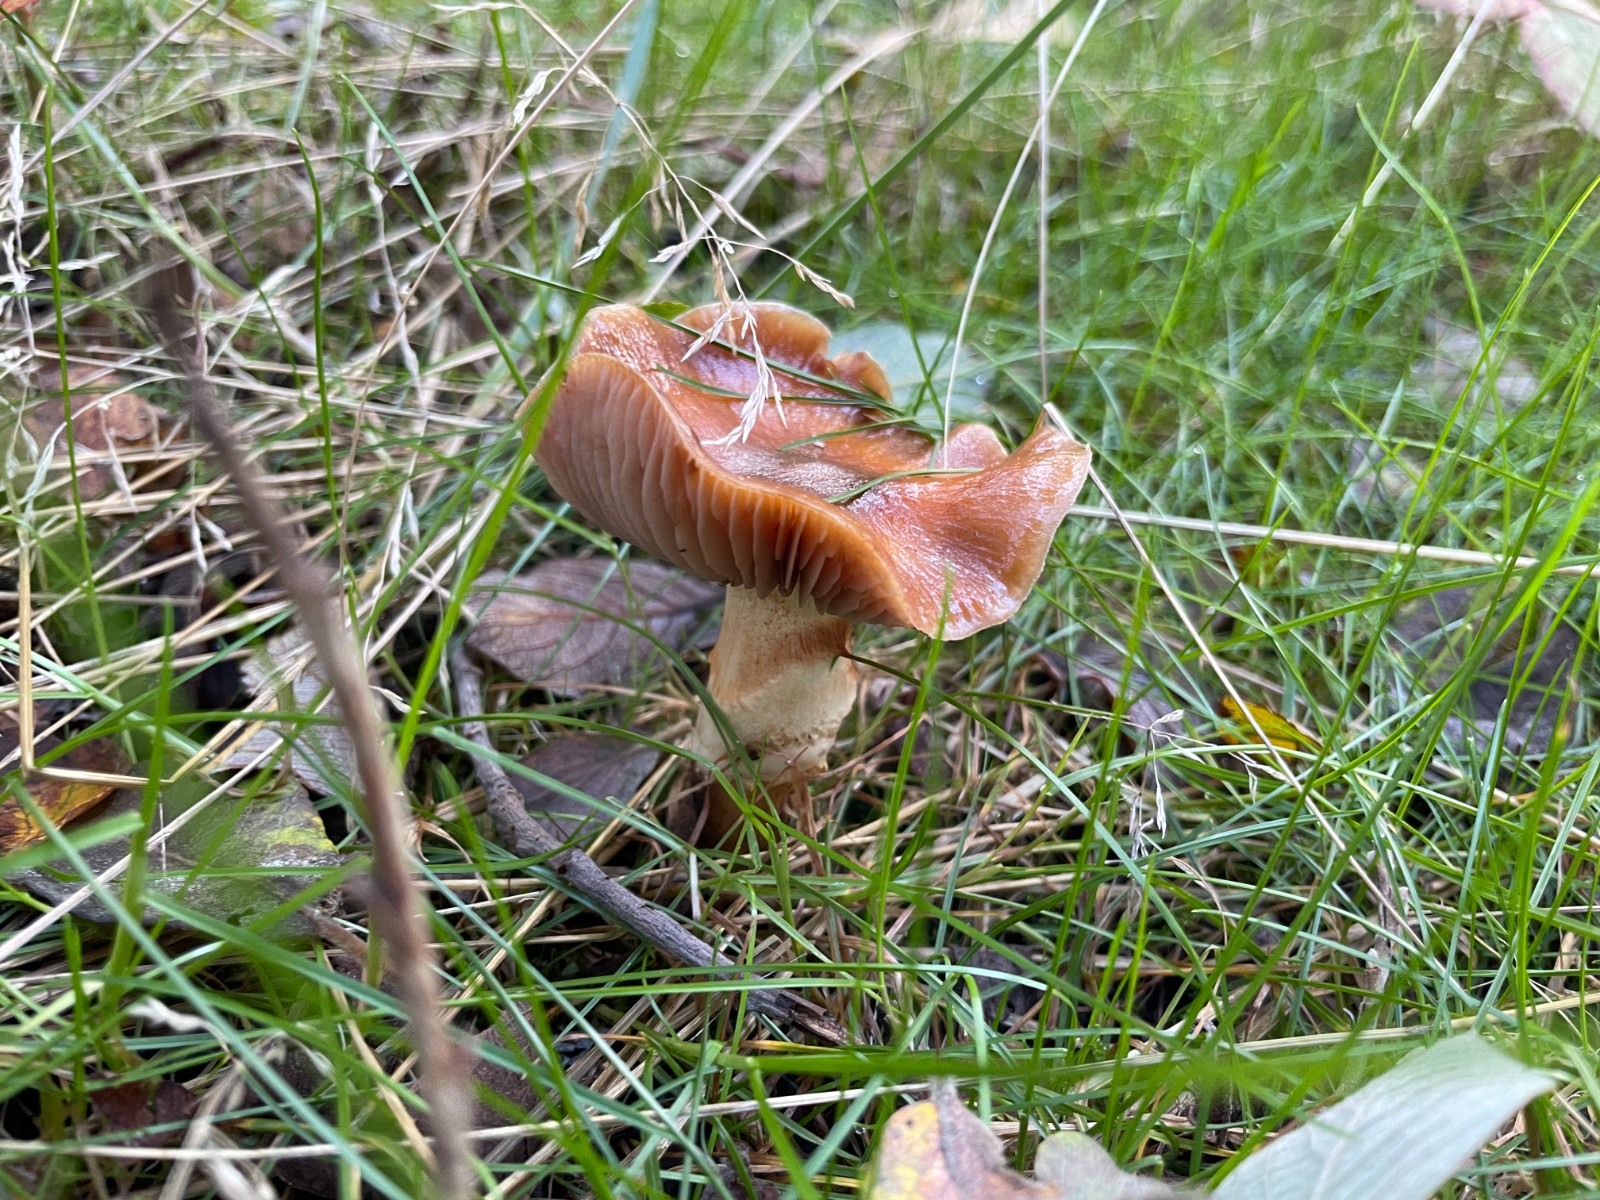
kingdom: Fungi
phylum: Basidiomycota
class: Agaricomycetes
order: Agaricales
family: Cortinariaceae
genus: Cortinarius
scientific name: Cortinarius trivialis
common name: Girdled webcap
